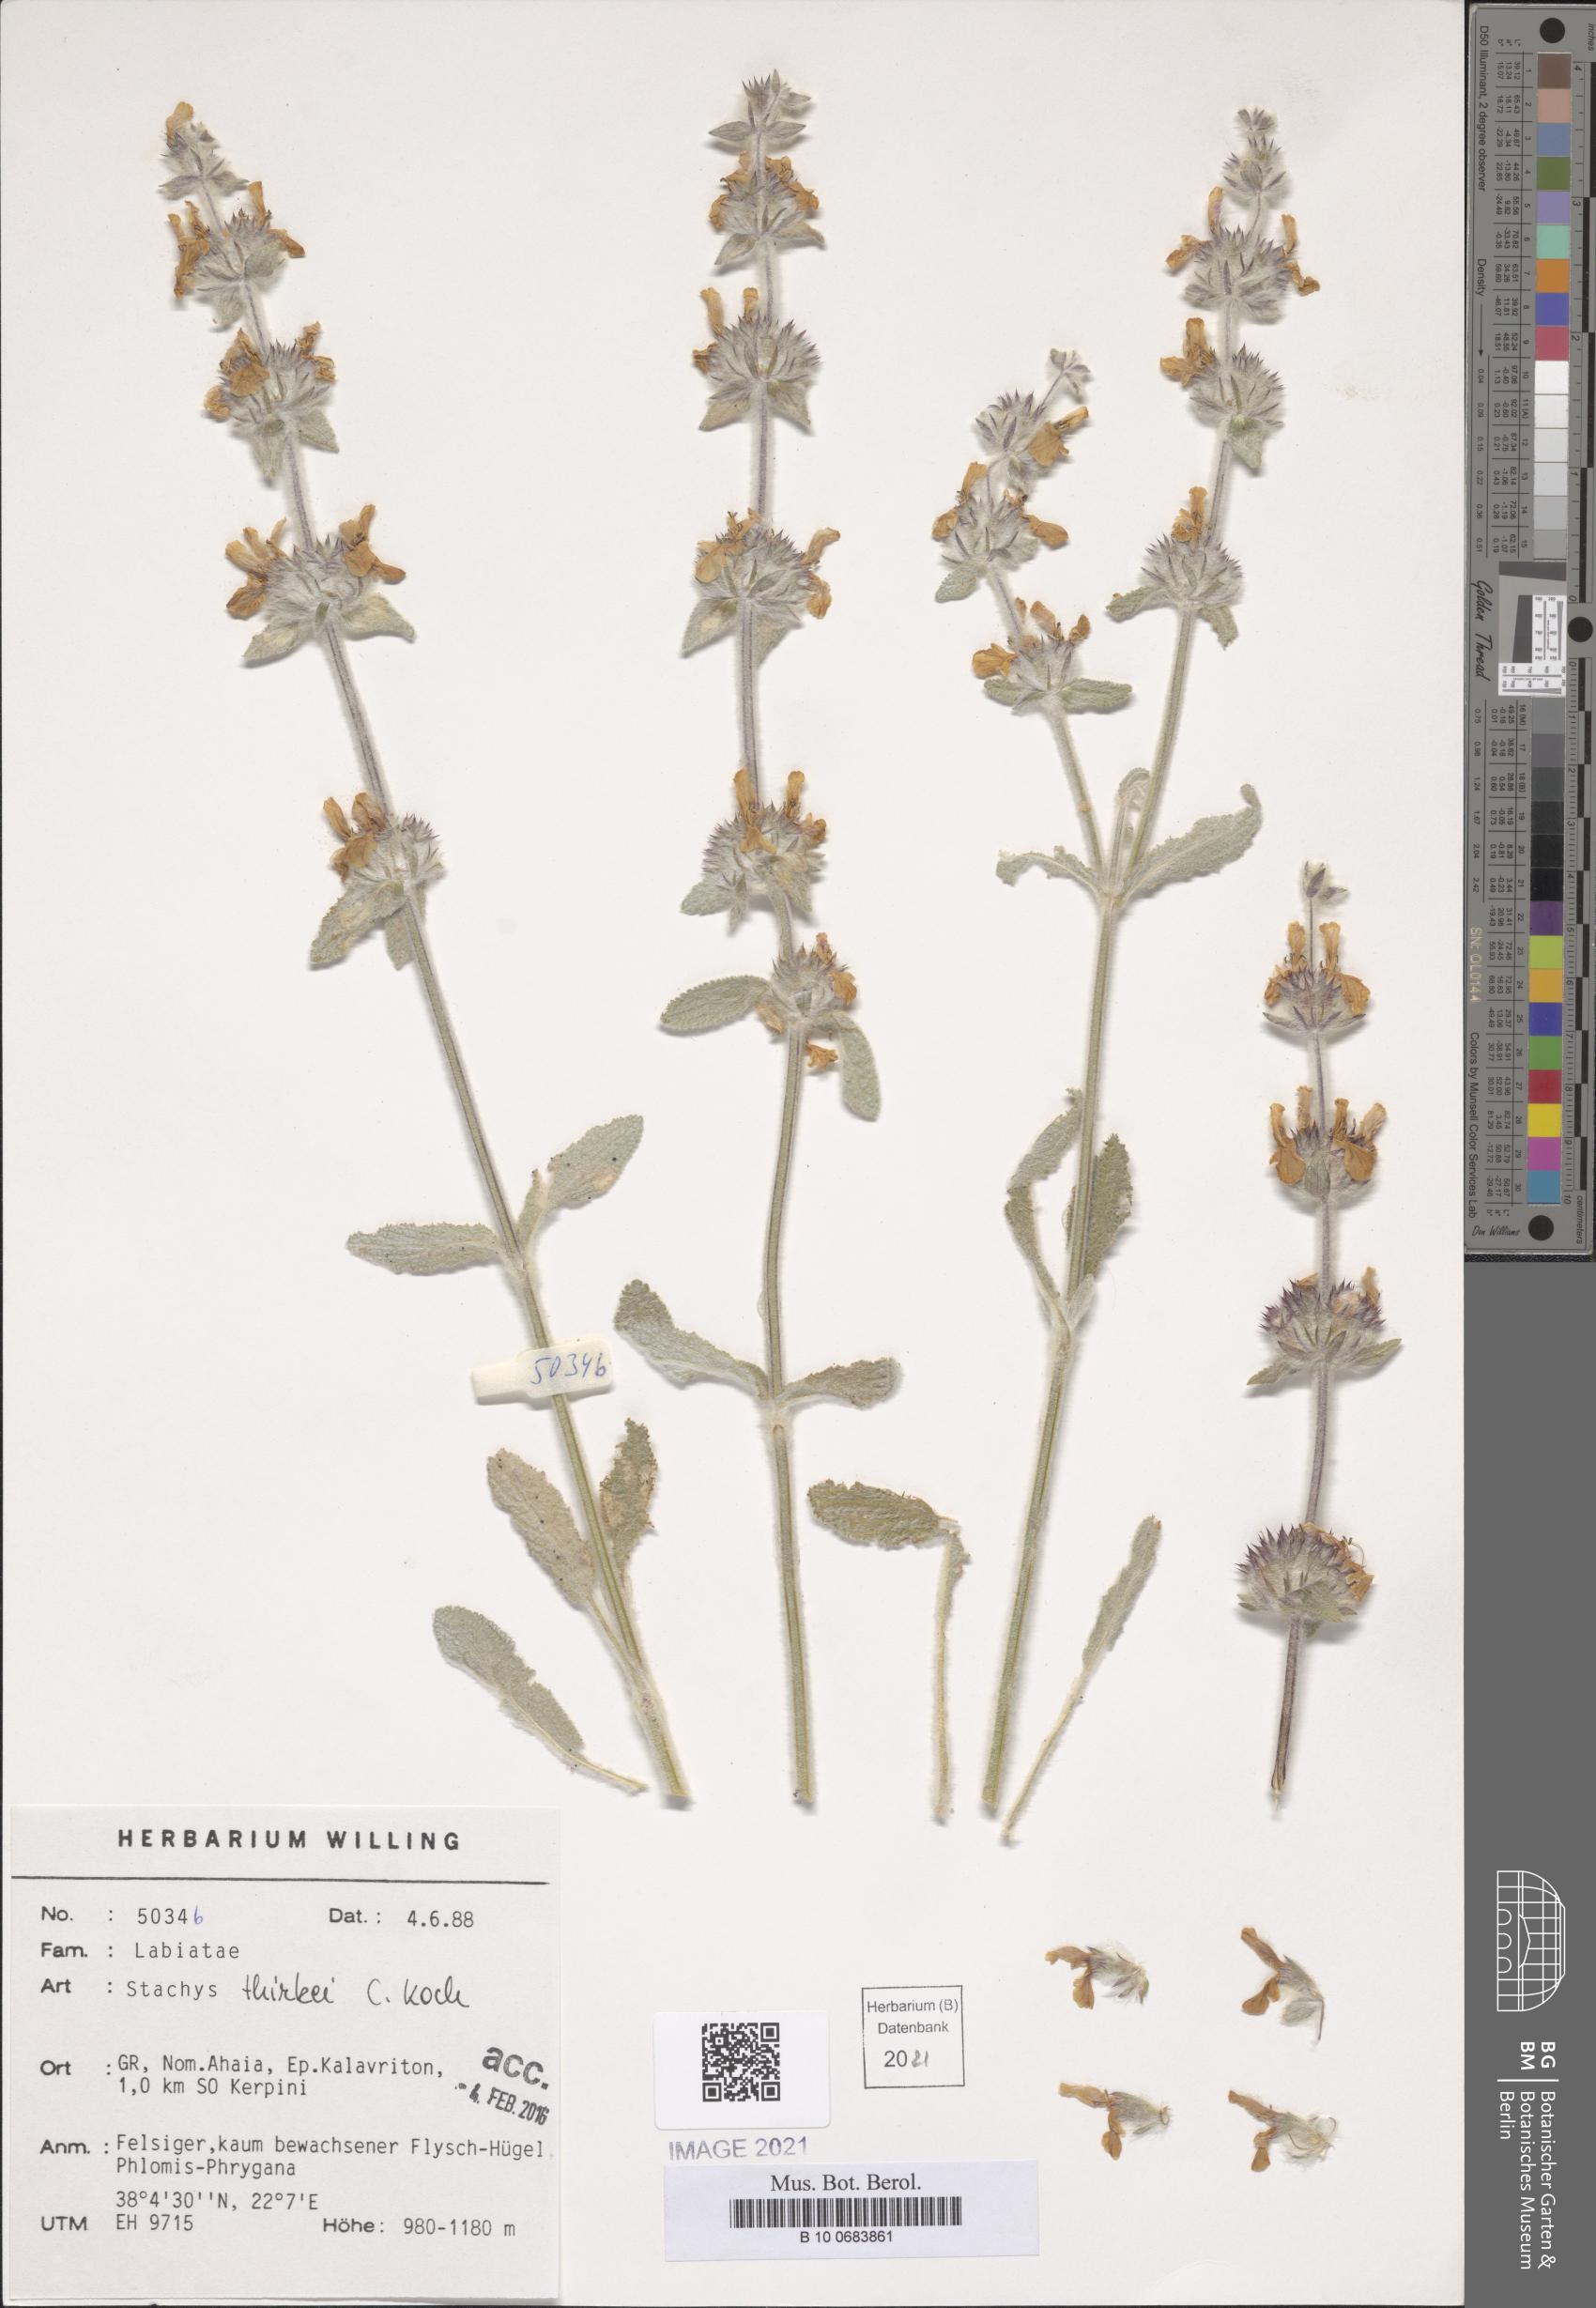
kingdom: Plantae
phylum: Tracheophyta
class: Magnoliopsida
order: Lamiales
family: Lamiaceae
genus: Stachys
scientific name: Stachys thirkei
